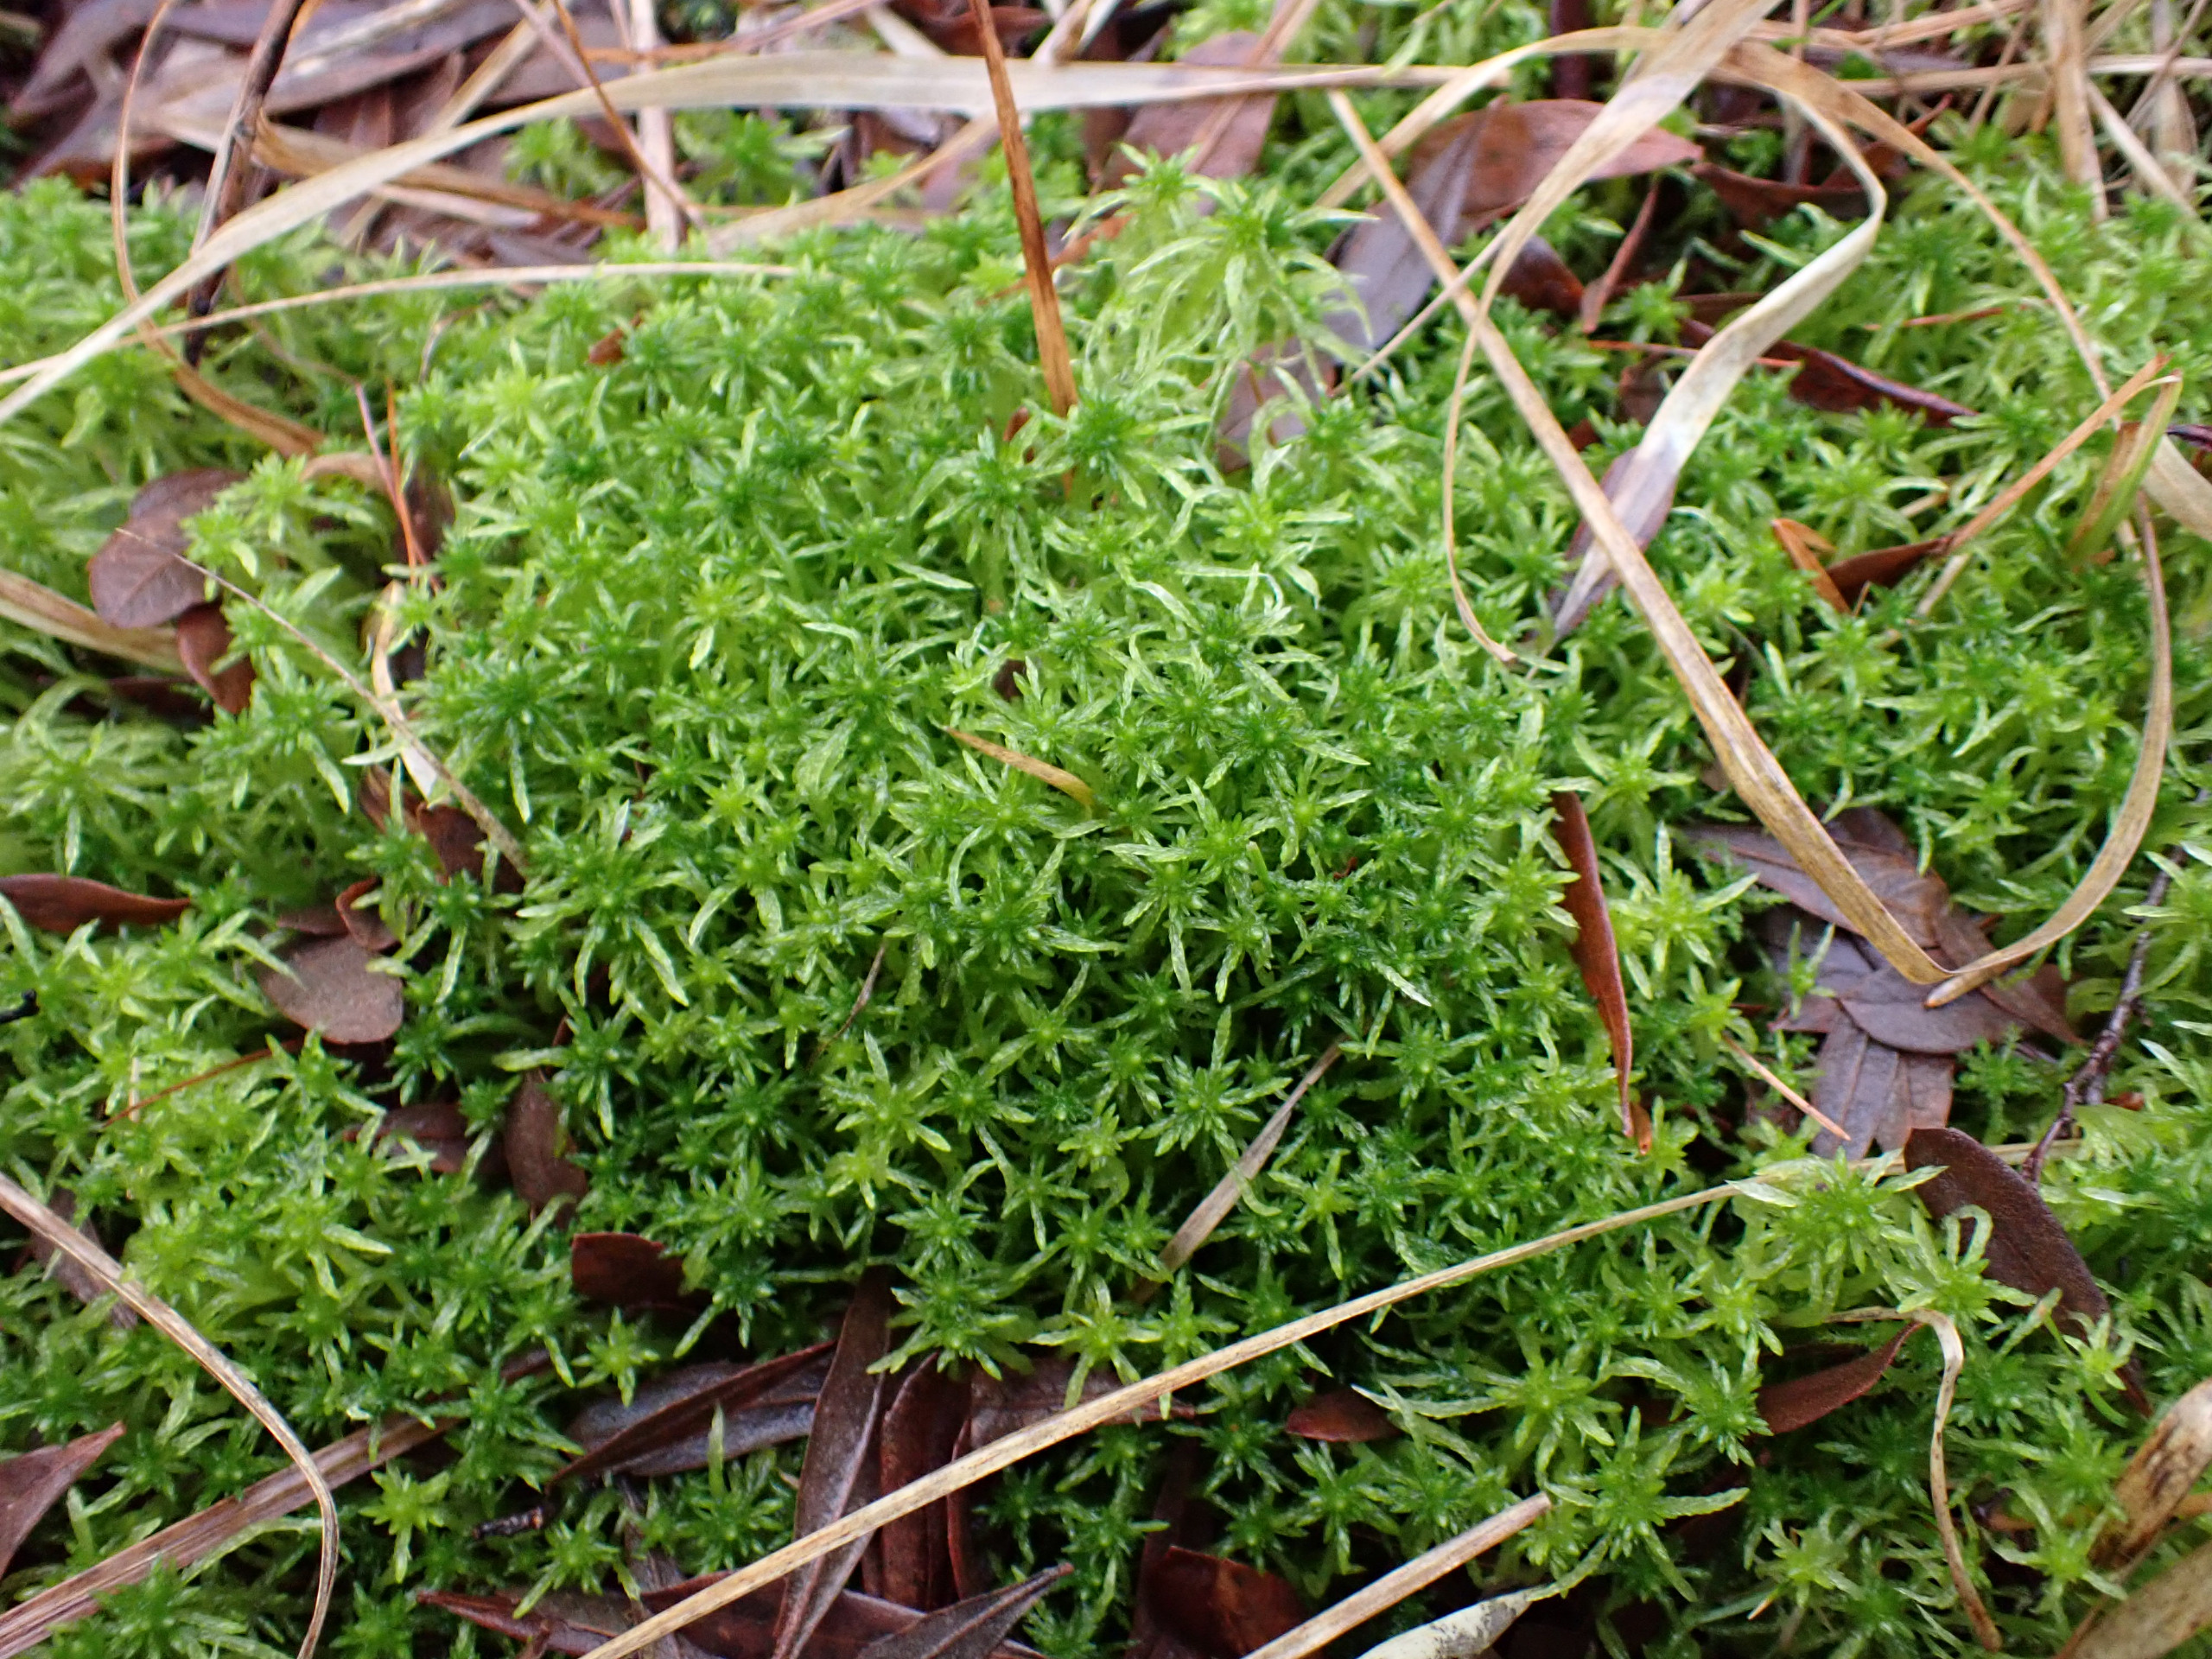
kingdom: Plantae
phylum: Bryophyta
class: Sphagnopsida
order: Sphagnales
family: Sphagnaceae
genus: Sphagnum
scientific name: Sphagnum fimbriatum
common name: Frynset tørvemos
